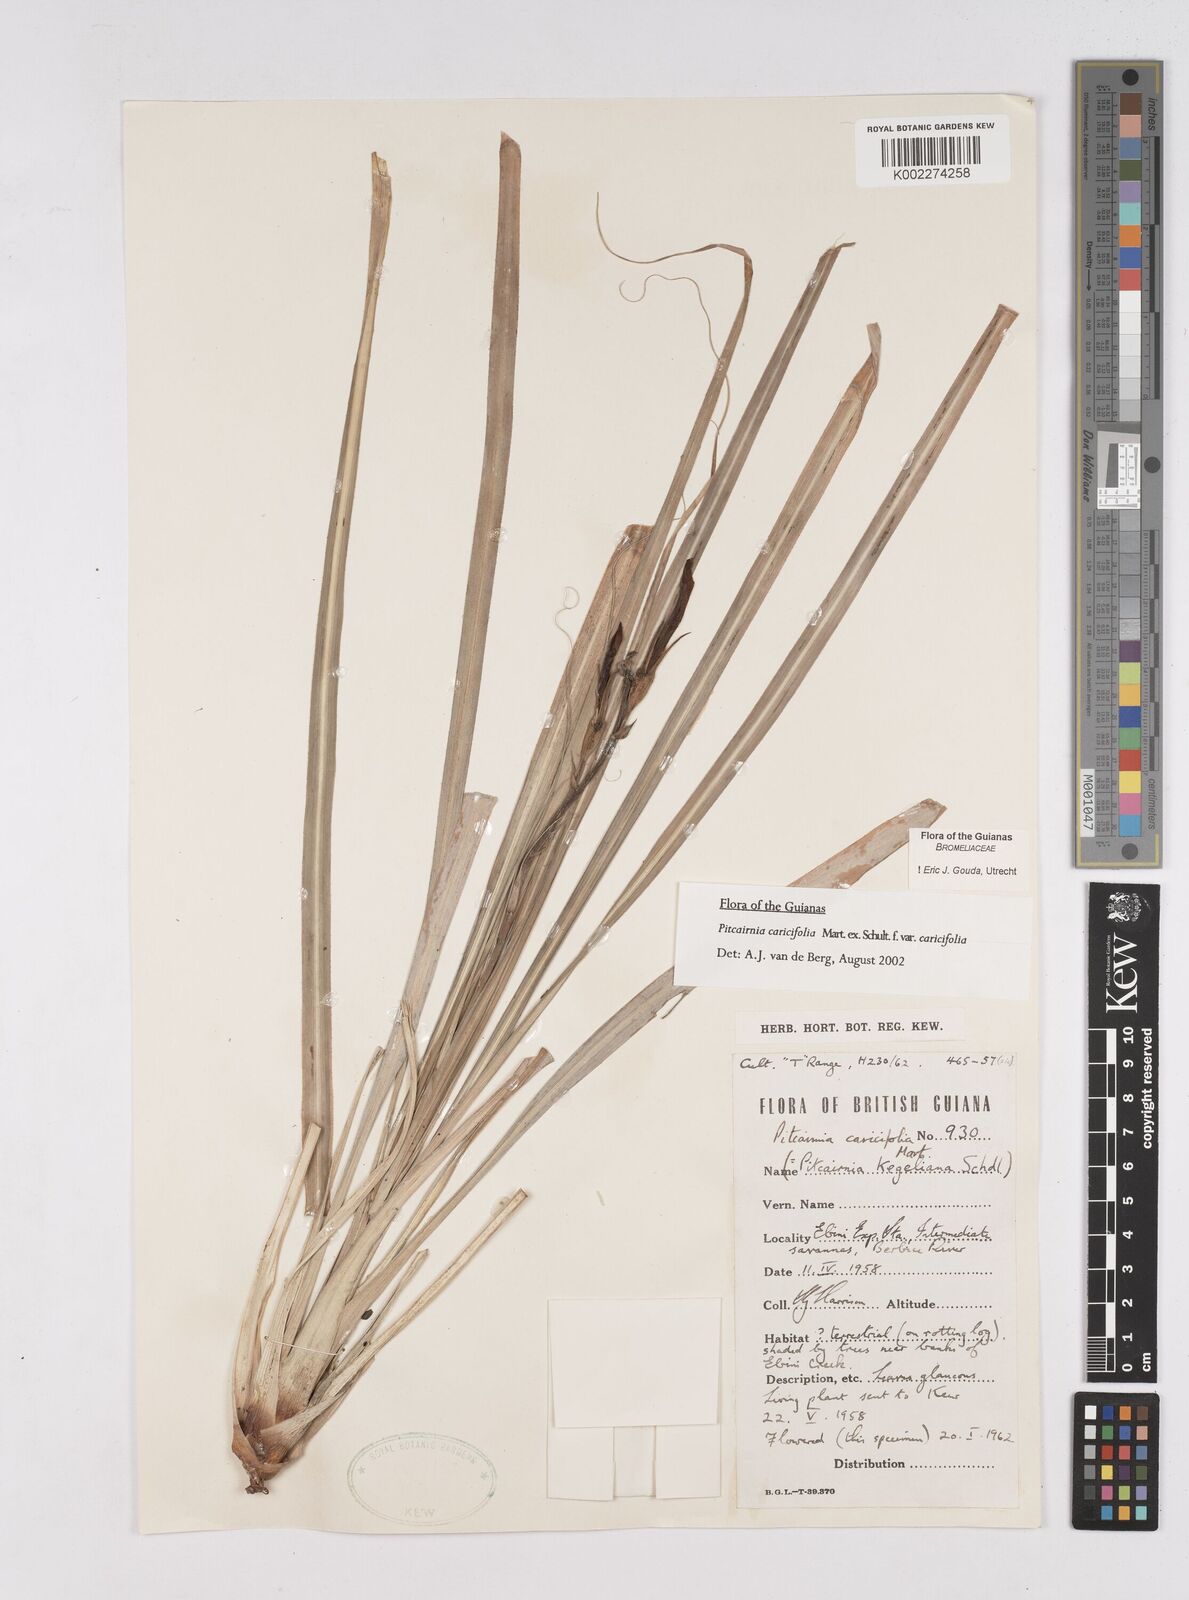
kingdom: Plantae
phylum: Tracheophyta
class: Liliopsida
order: Poales
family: Bromeliaceae
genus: Pitcairnia
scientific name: Pitcairnia caricifolia
